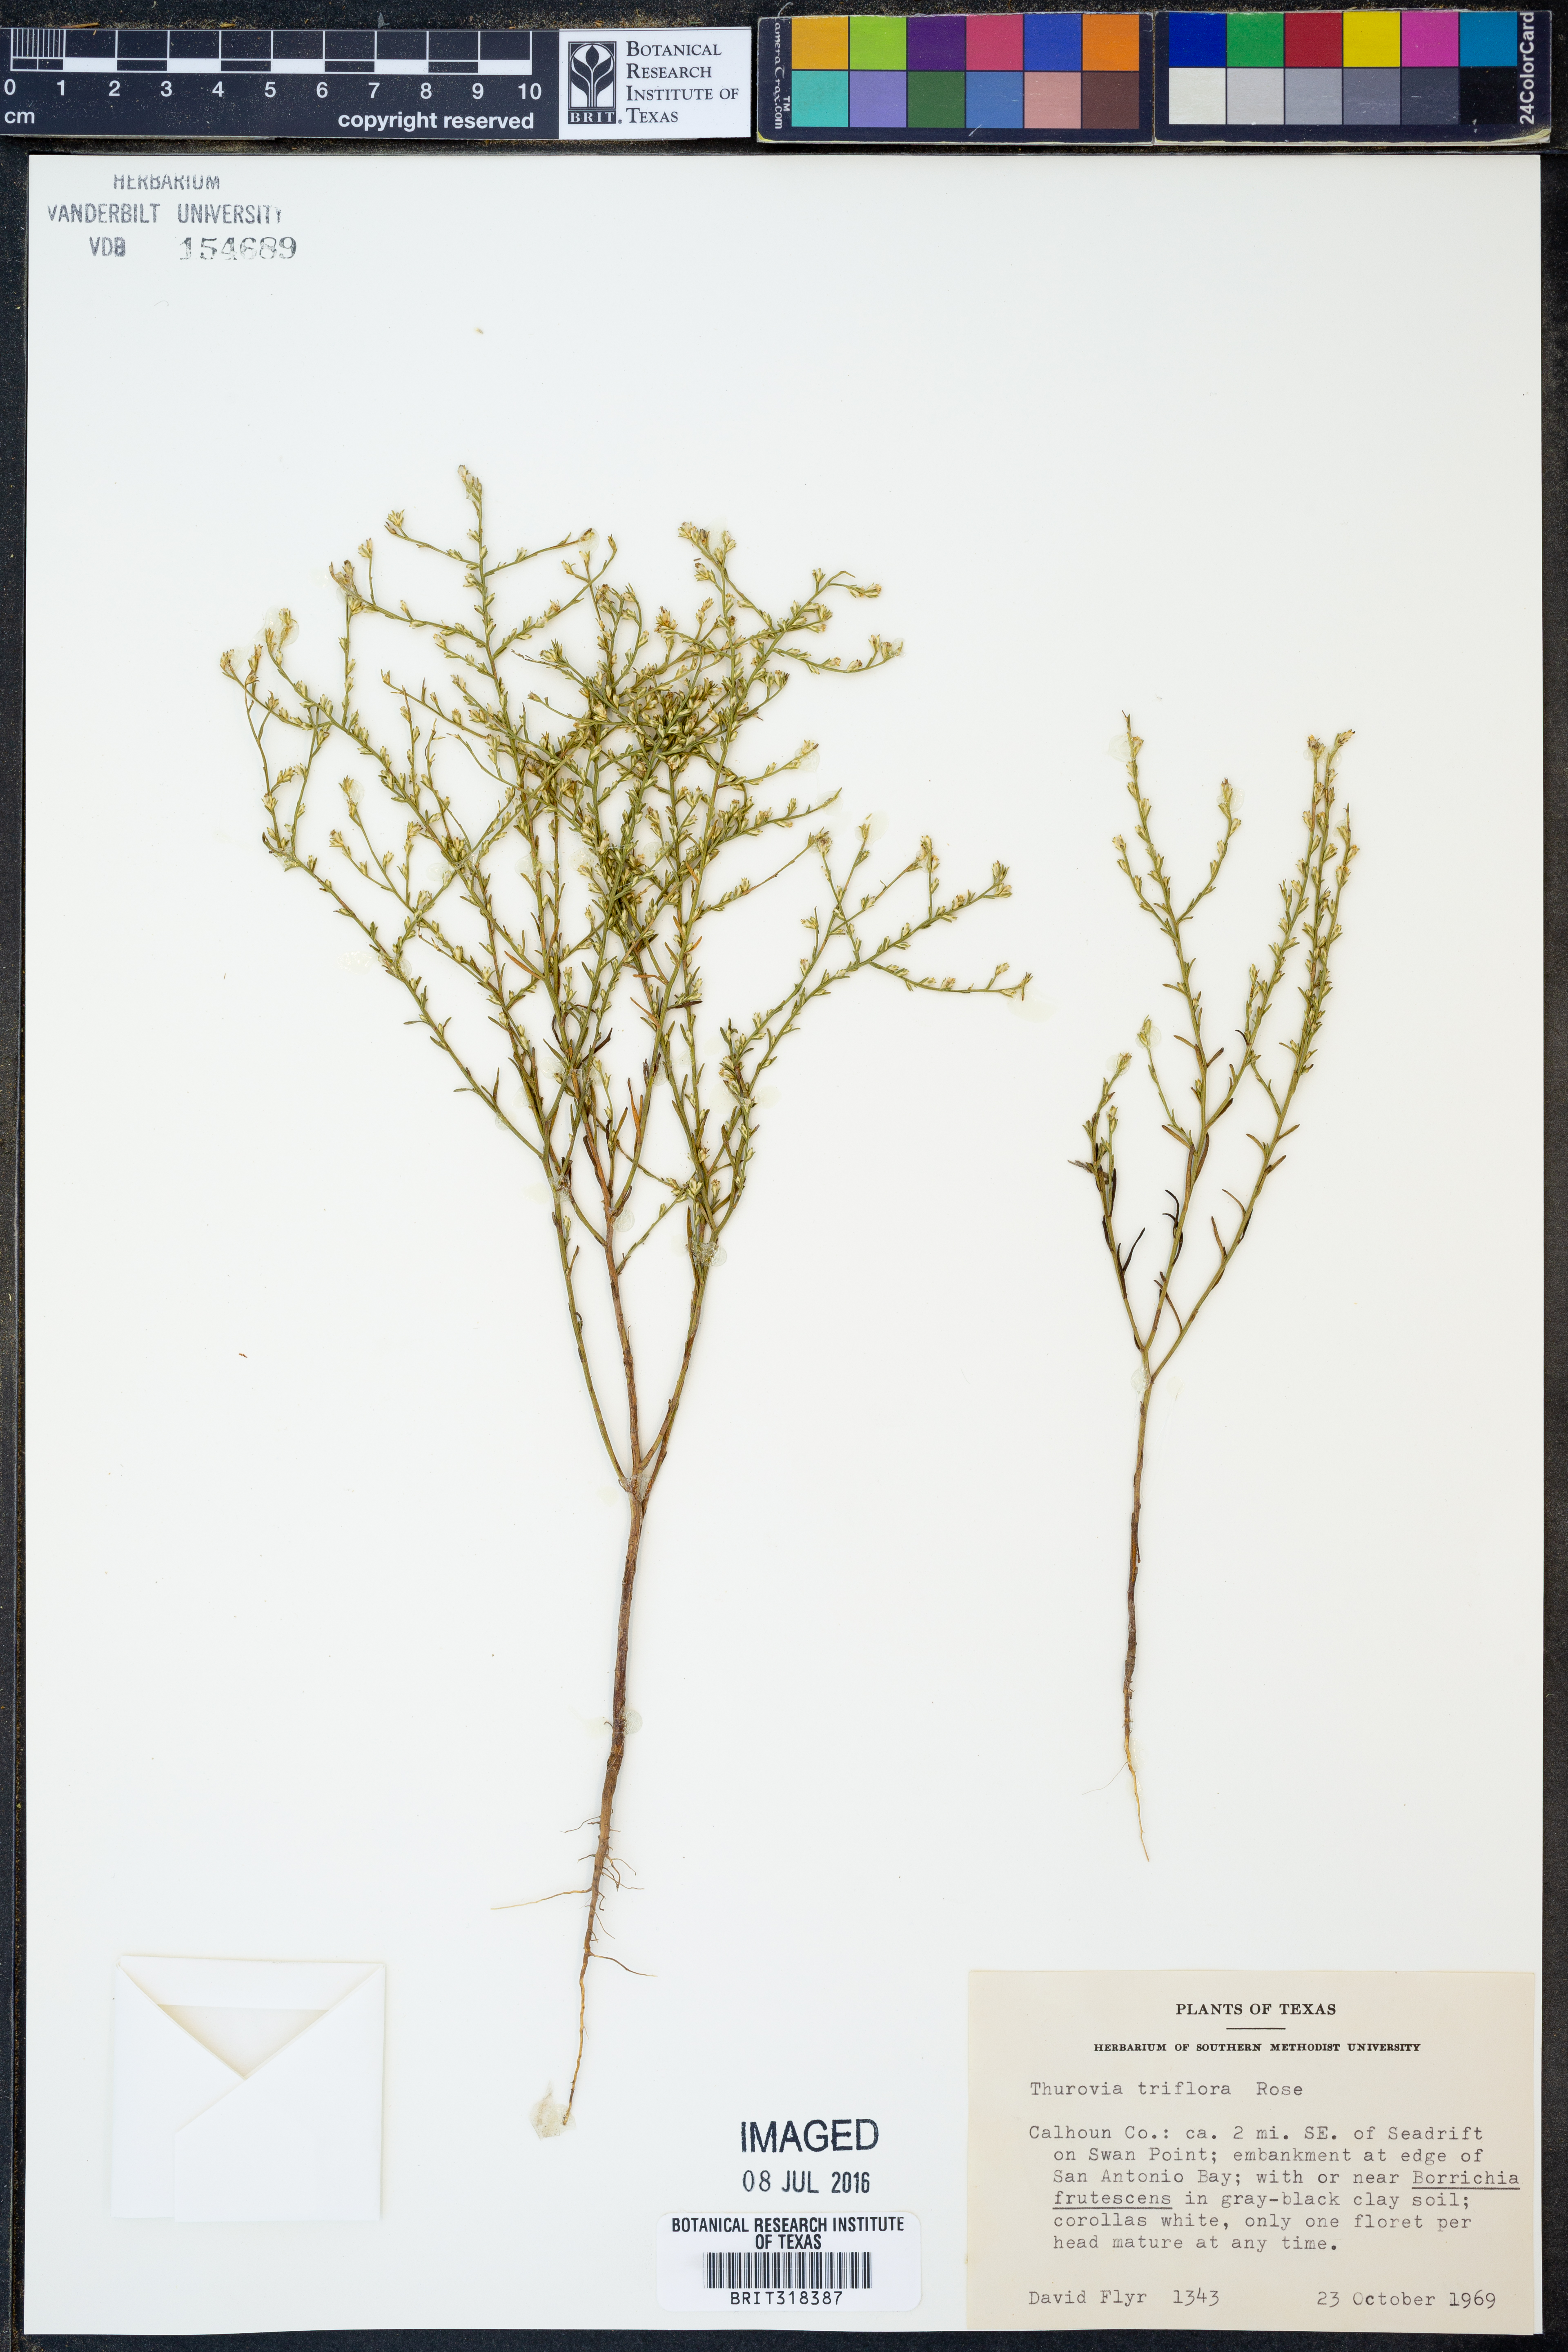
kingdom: Plantae
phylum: Tracheophyta
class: Magnoliopsida
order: Asterales
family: Asteraceae
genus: Thurovia
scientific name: Thurovia triflora
